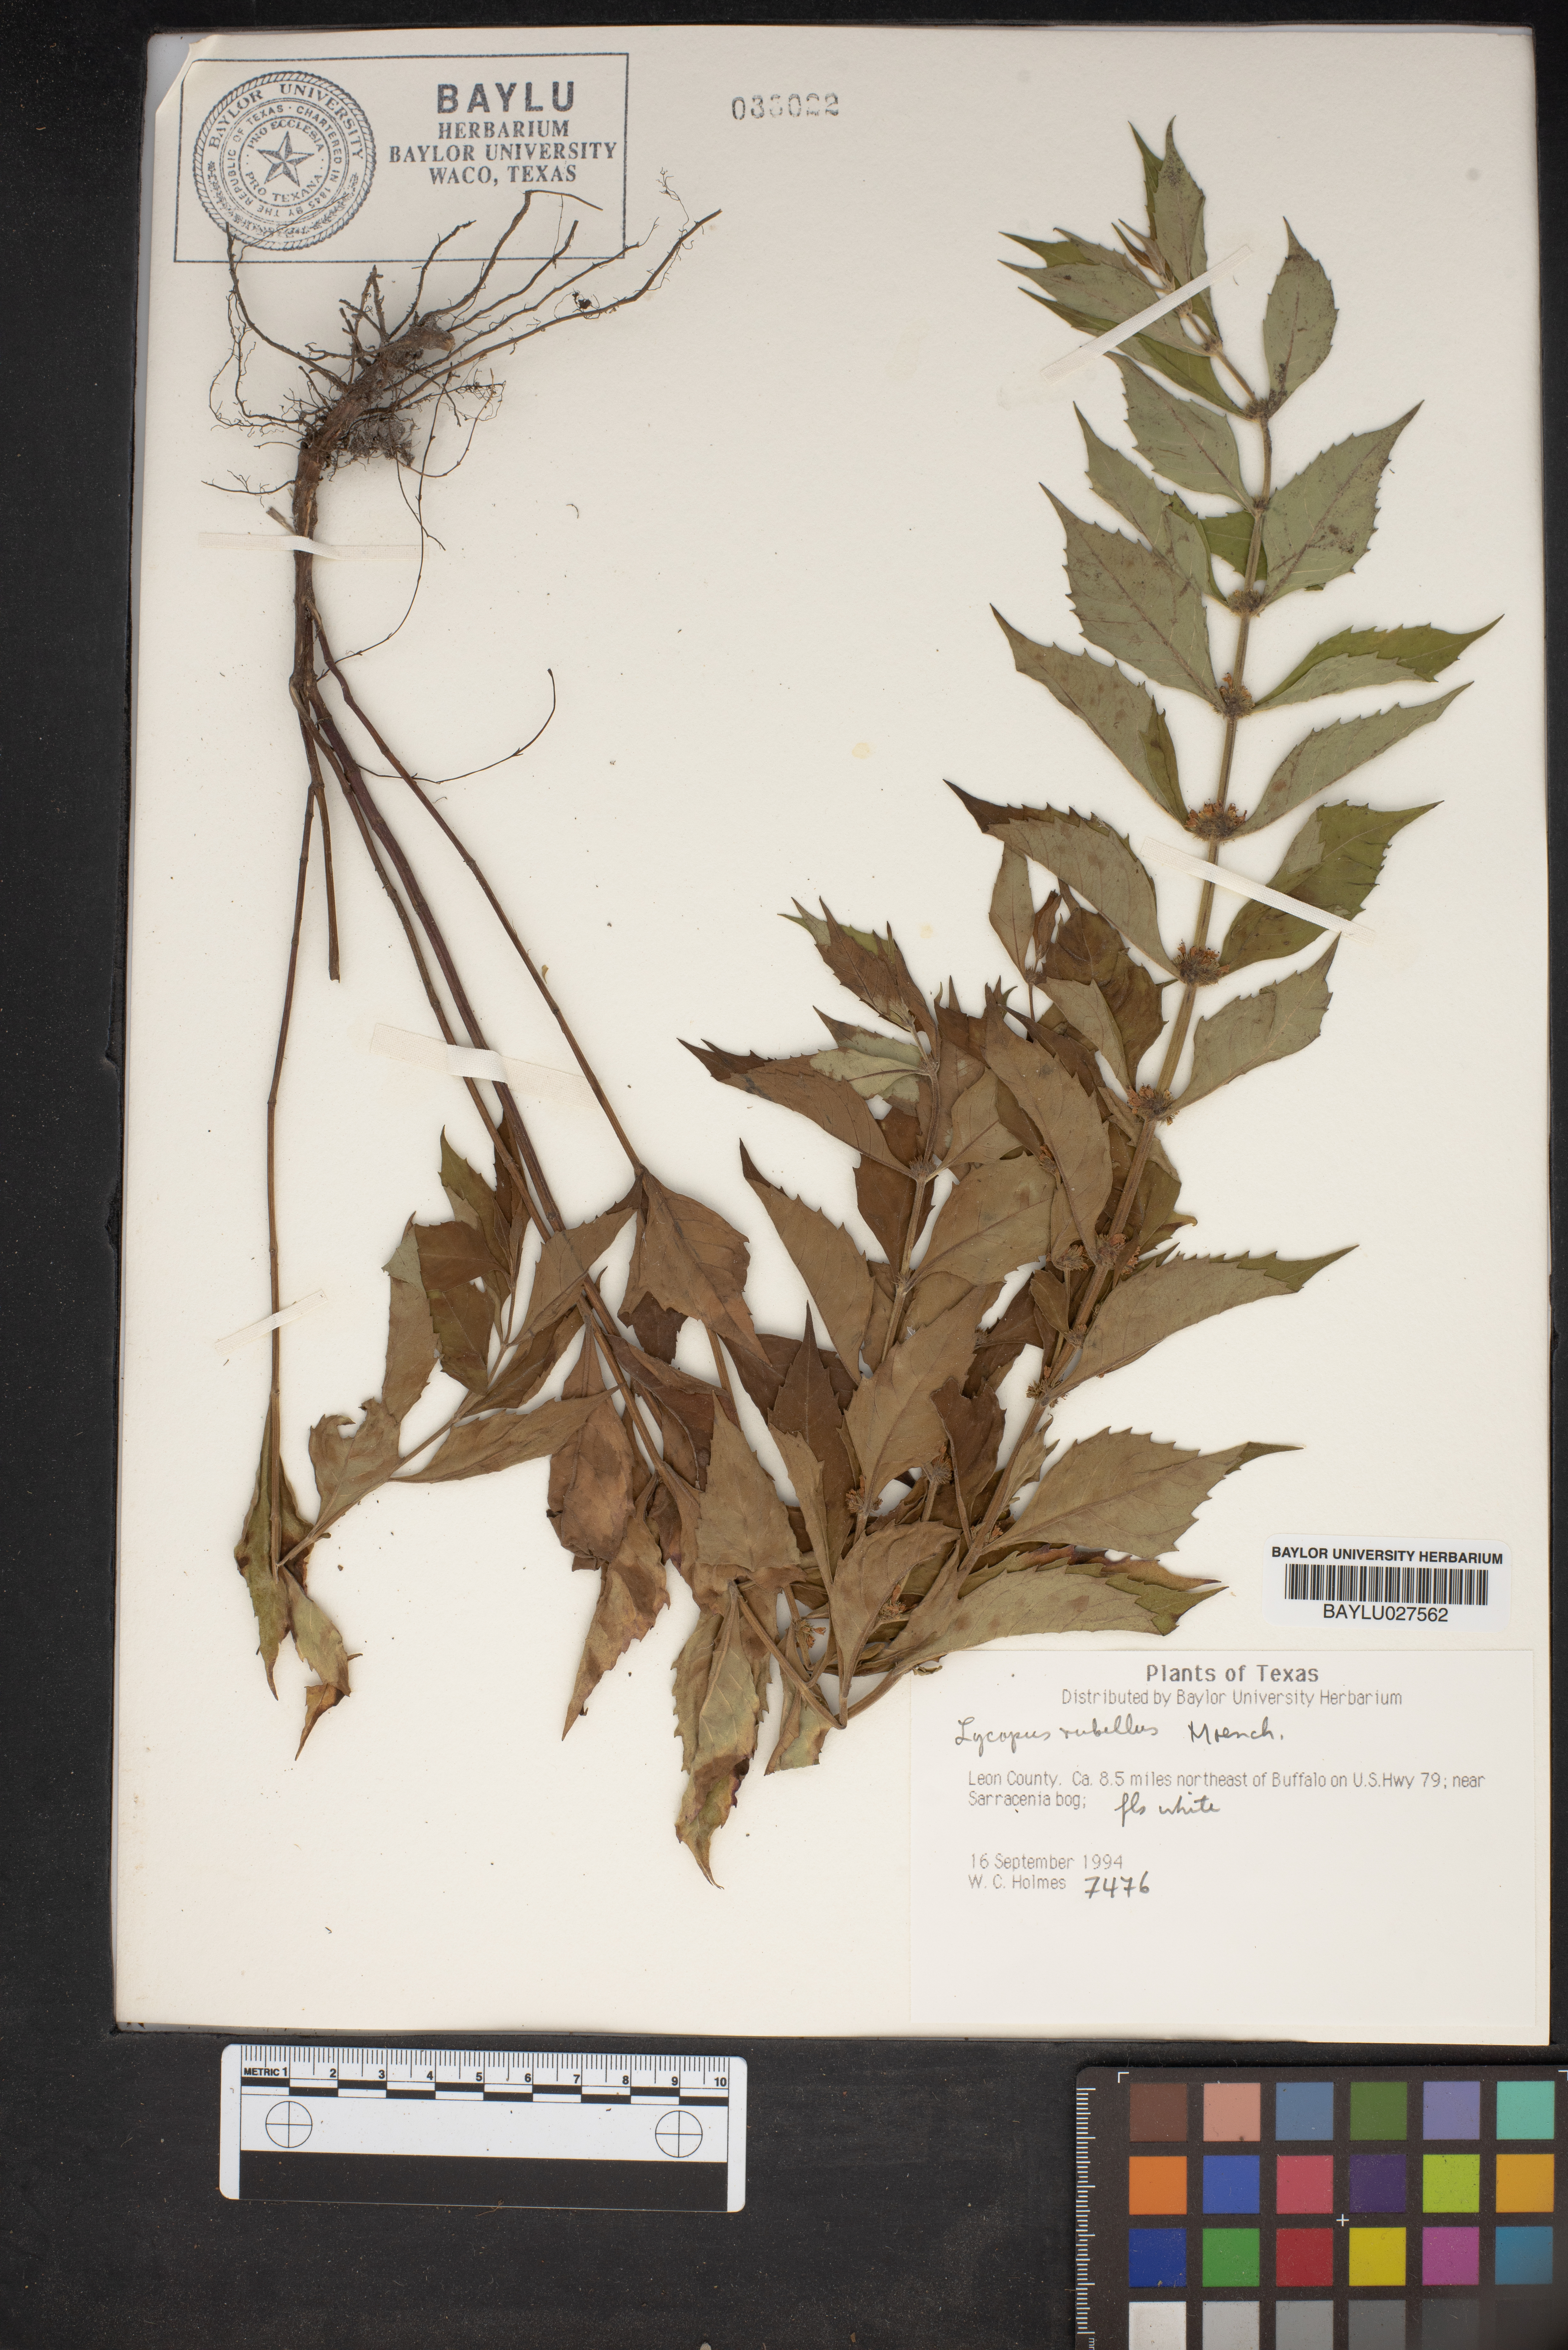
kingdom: Plantae
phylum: Tracheophyta
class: Magnoliopsida
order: Lamiales
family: Lamiaceae
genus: Lycopus
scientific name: Lycopus rubellus
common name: Stalked bugleweed
